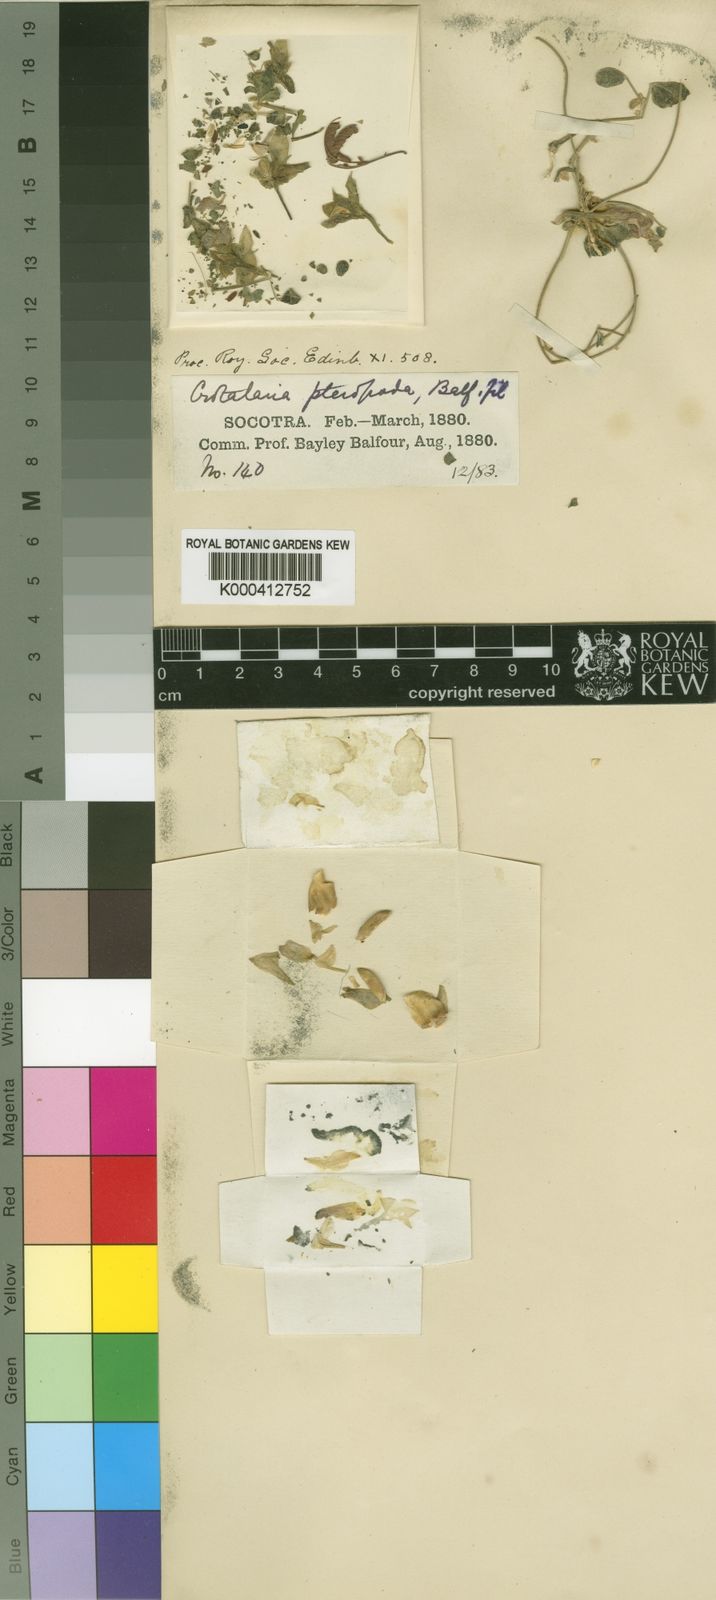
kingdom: Plantae
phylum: Tracheophyta
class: Magnoliopsida
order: Fabales
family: Fabaceae
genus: Crotalaria
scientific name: Crotalaria pteropoda
